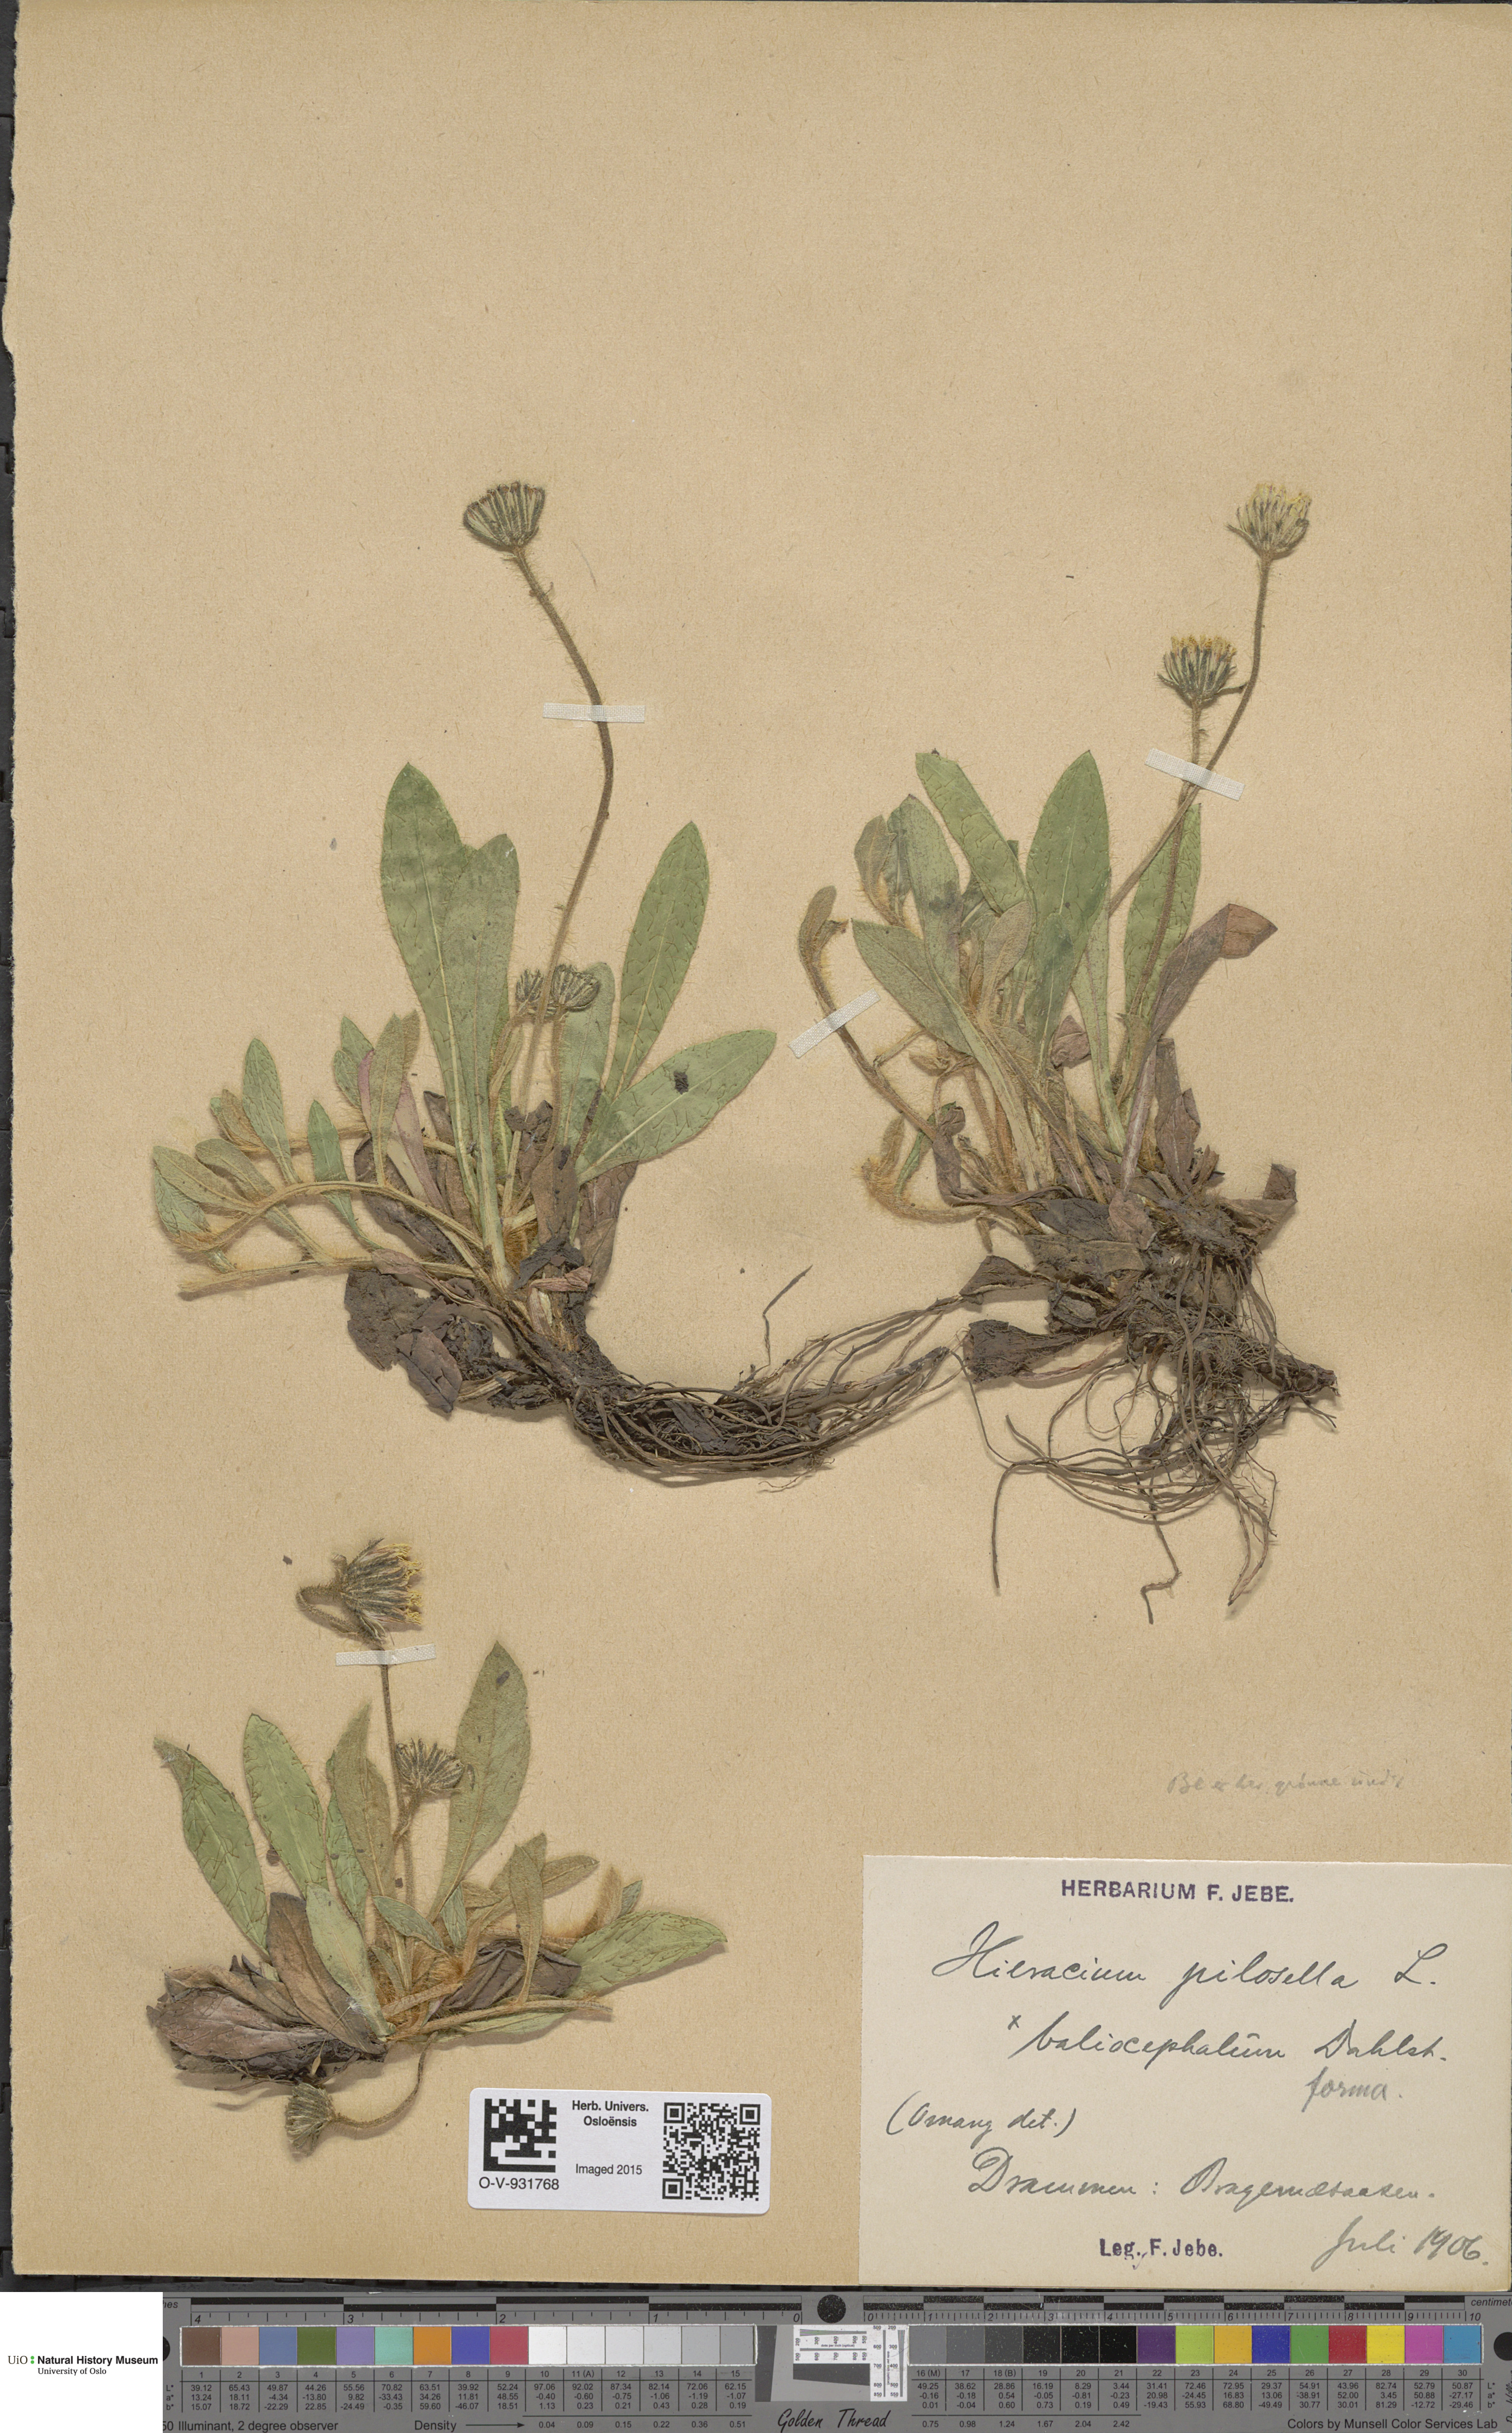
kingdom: Plantae
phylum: Tracheophyta
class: Magnoliopsida
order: Asterales
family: Asteraceae
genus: Pilosella
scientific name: Pilosella officinarum
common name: Mouse-ear hawkweed
